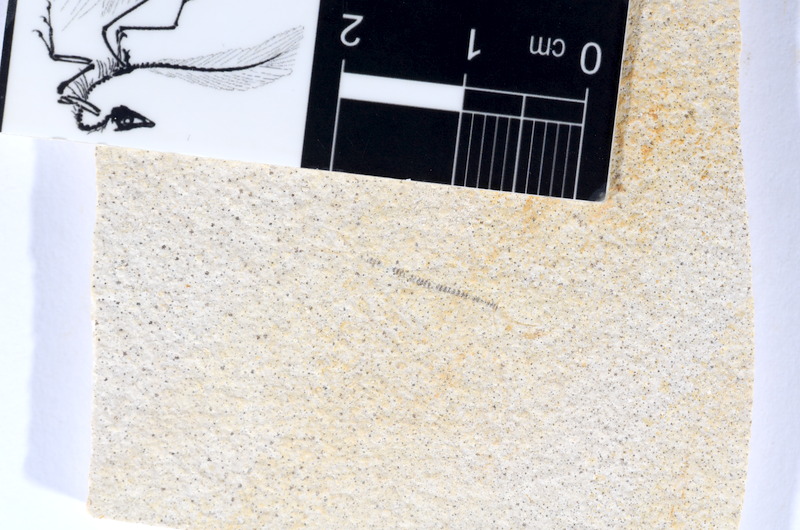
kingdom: Animalia
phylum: Chordata
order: Salmoniformes
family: Orthogonikleithridae
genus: Orthogonikleithrus
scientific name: Orthogonikleithrus hoelli
